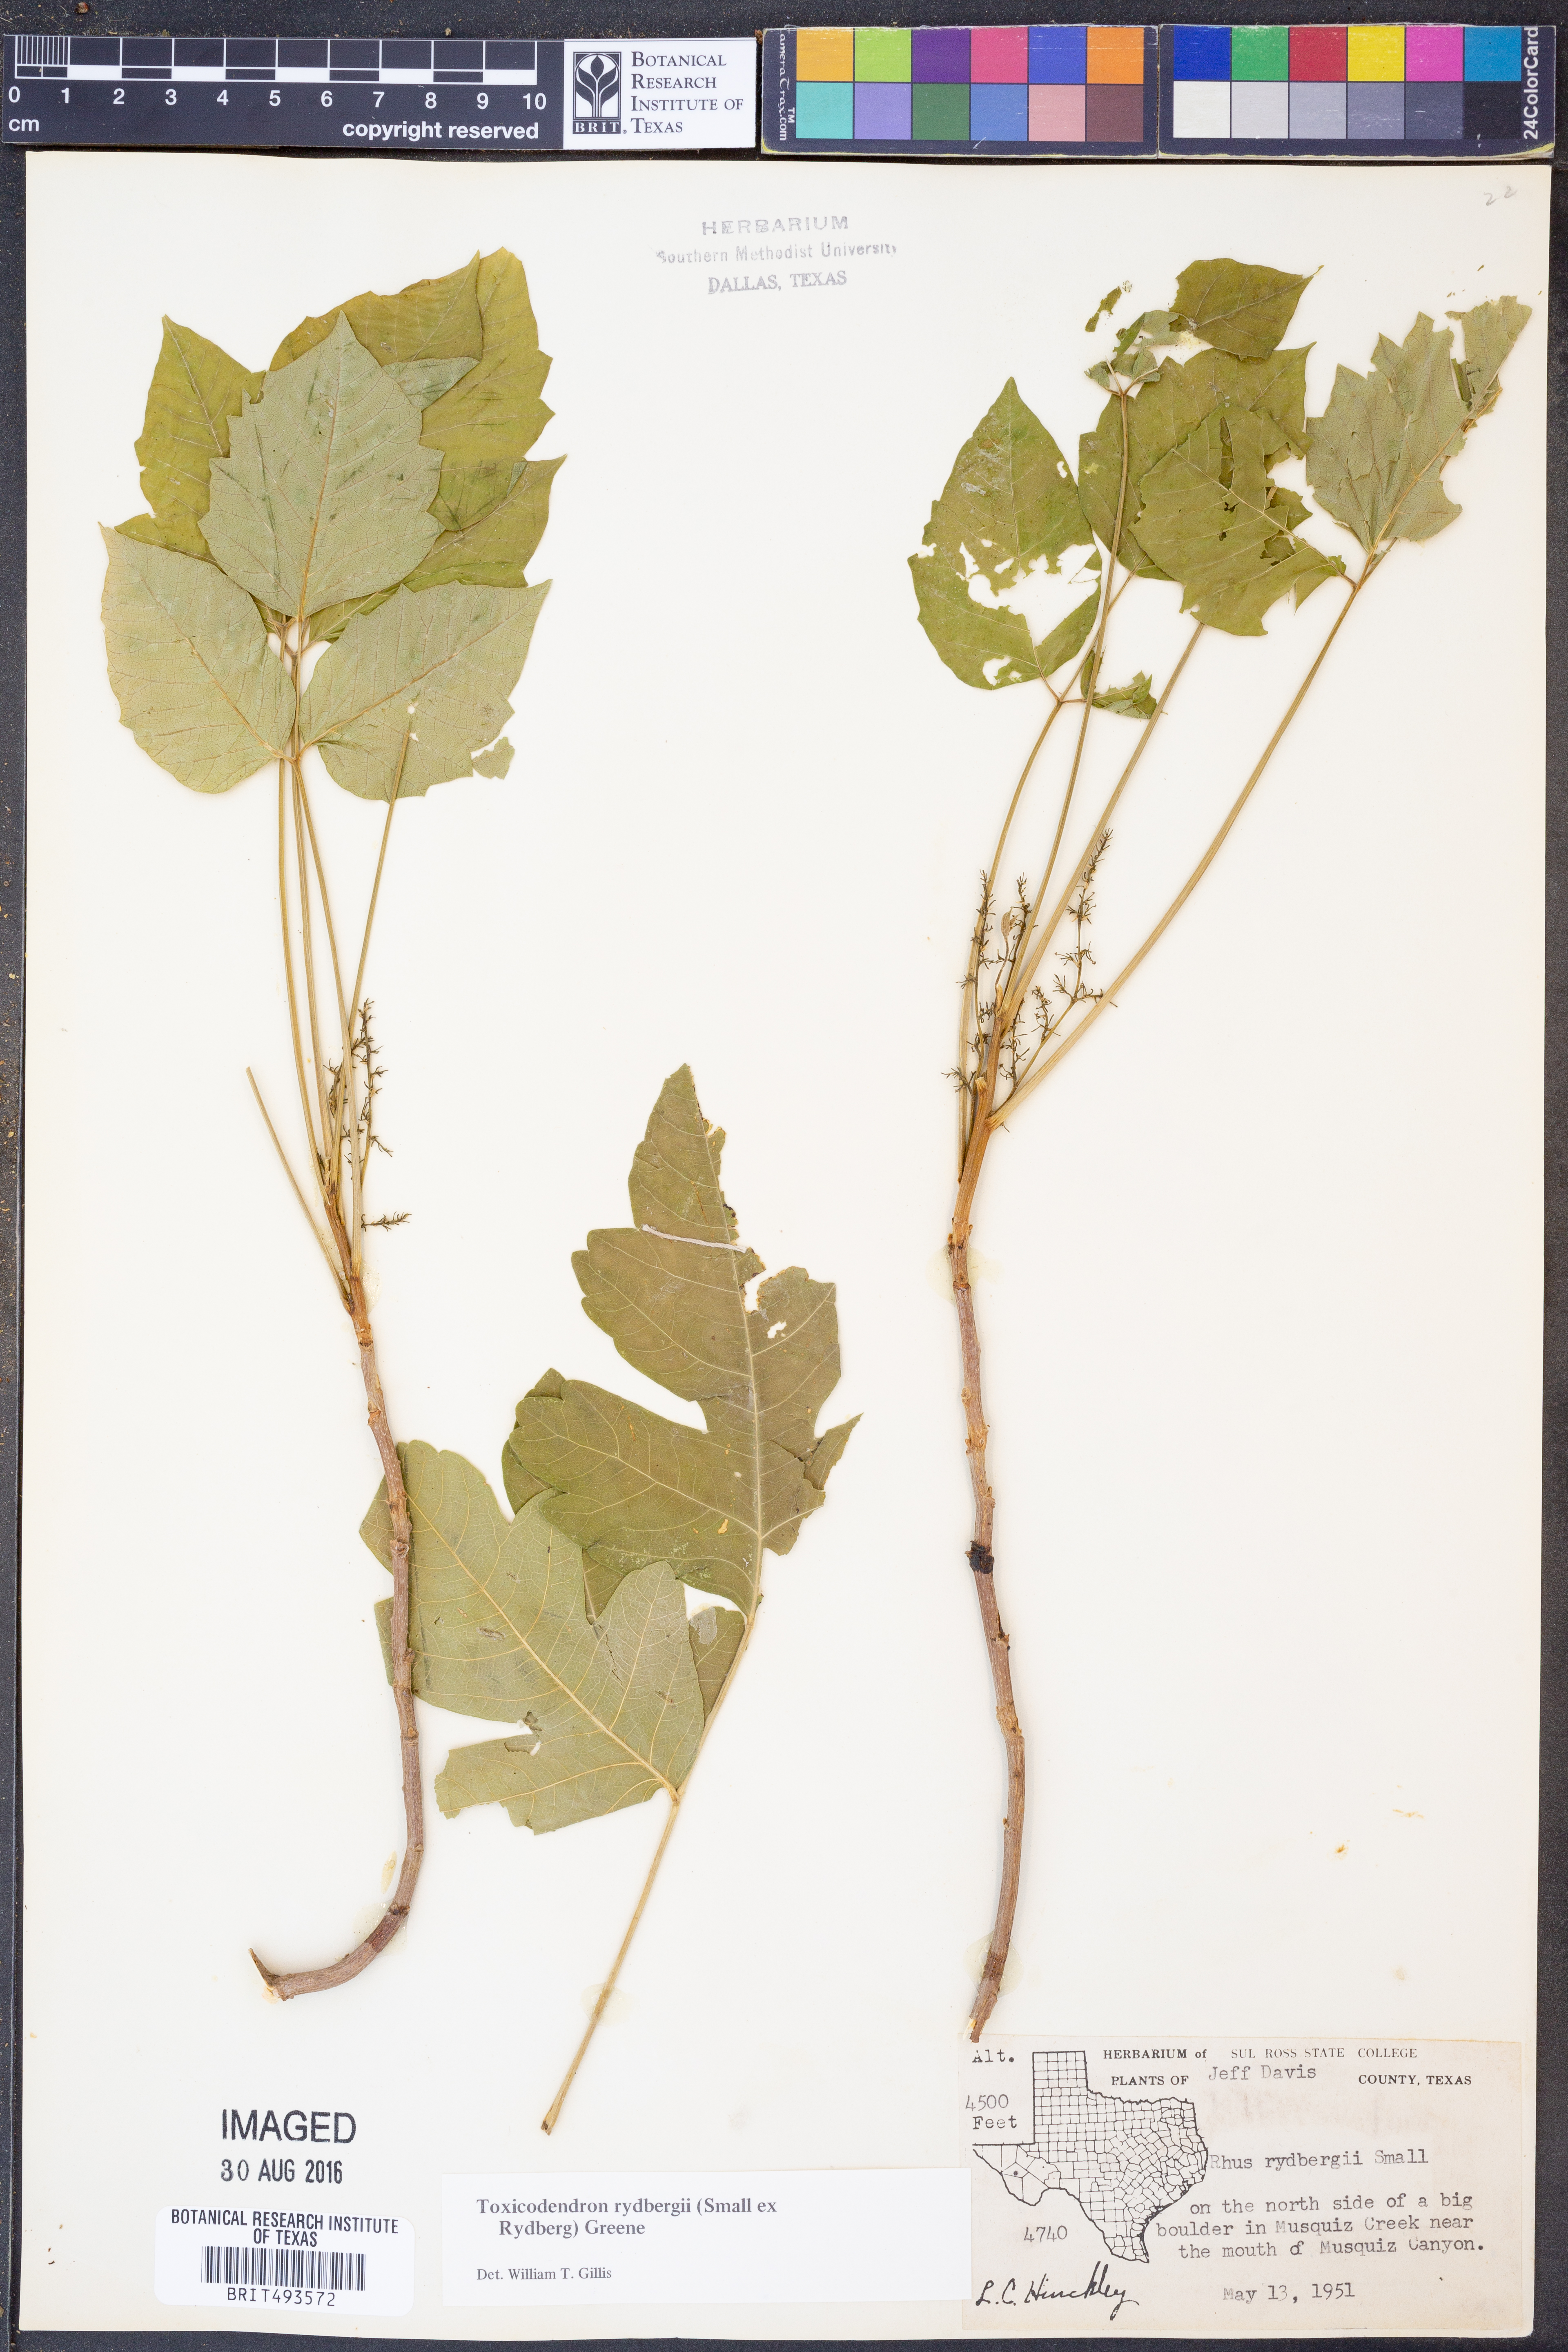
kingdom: Plantae
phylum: Tracheophyta
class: Magnoliopsida
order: Sapindales
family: Anacardiaceae
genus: Toxicodendron
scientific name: Toxicodendron rydbergii
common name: Rydberg's poison-ivy
